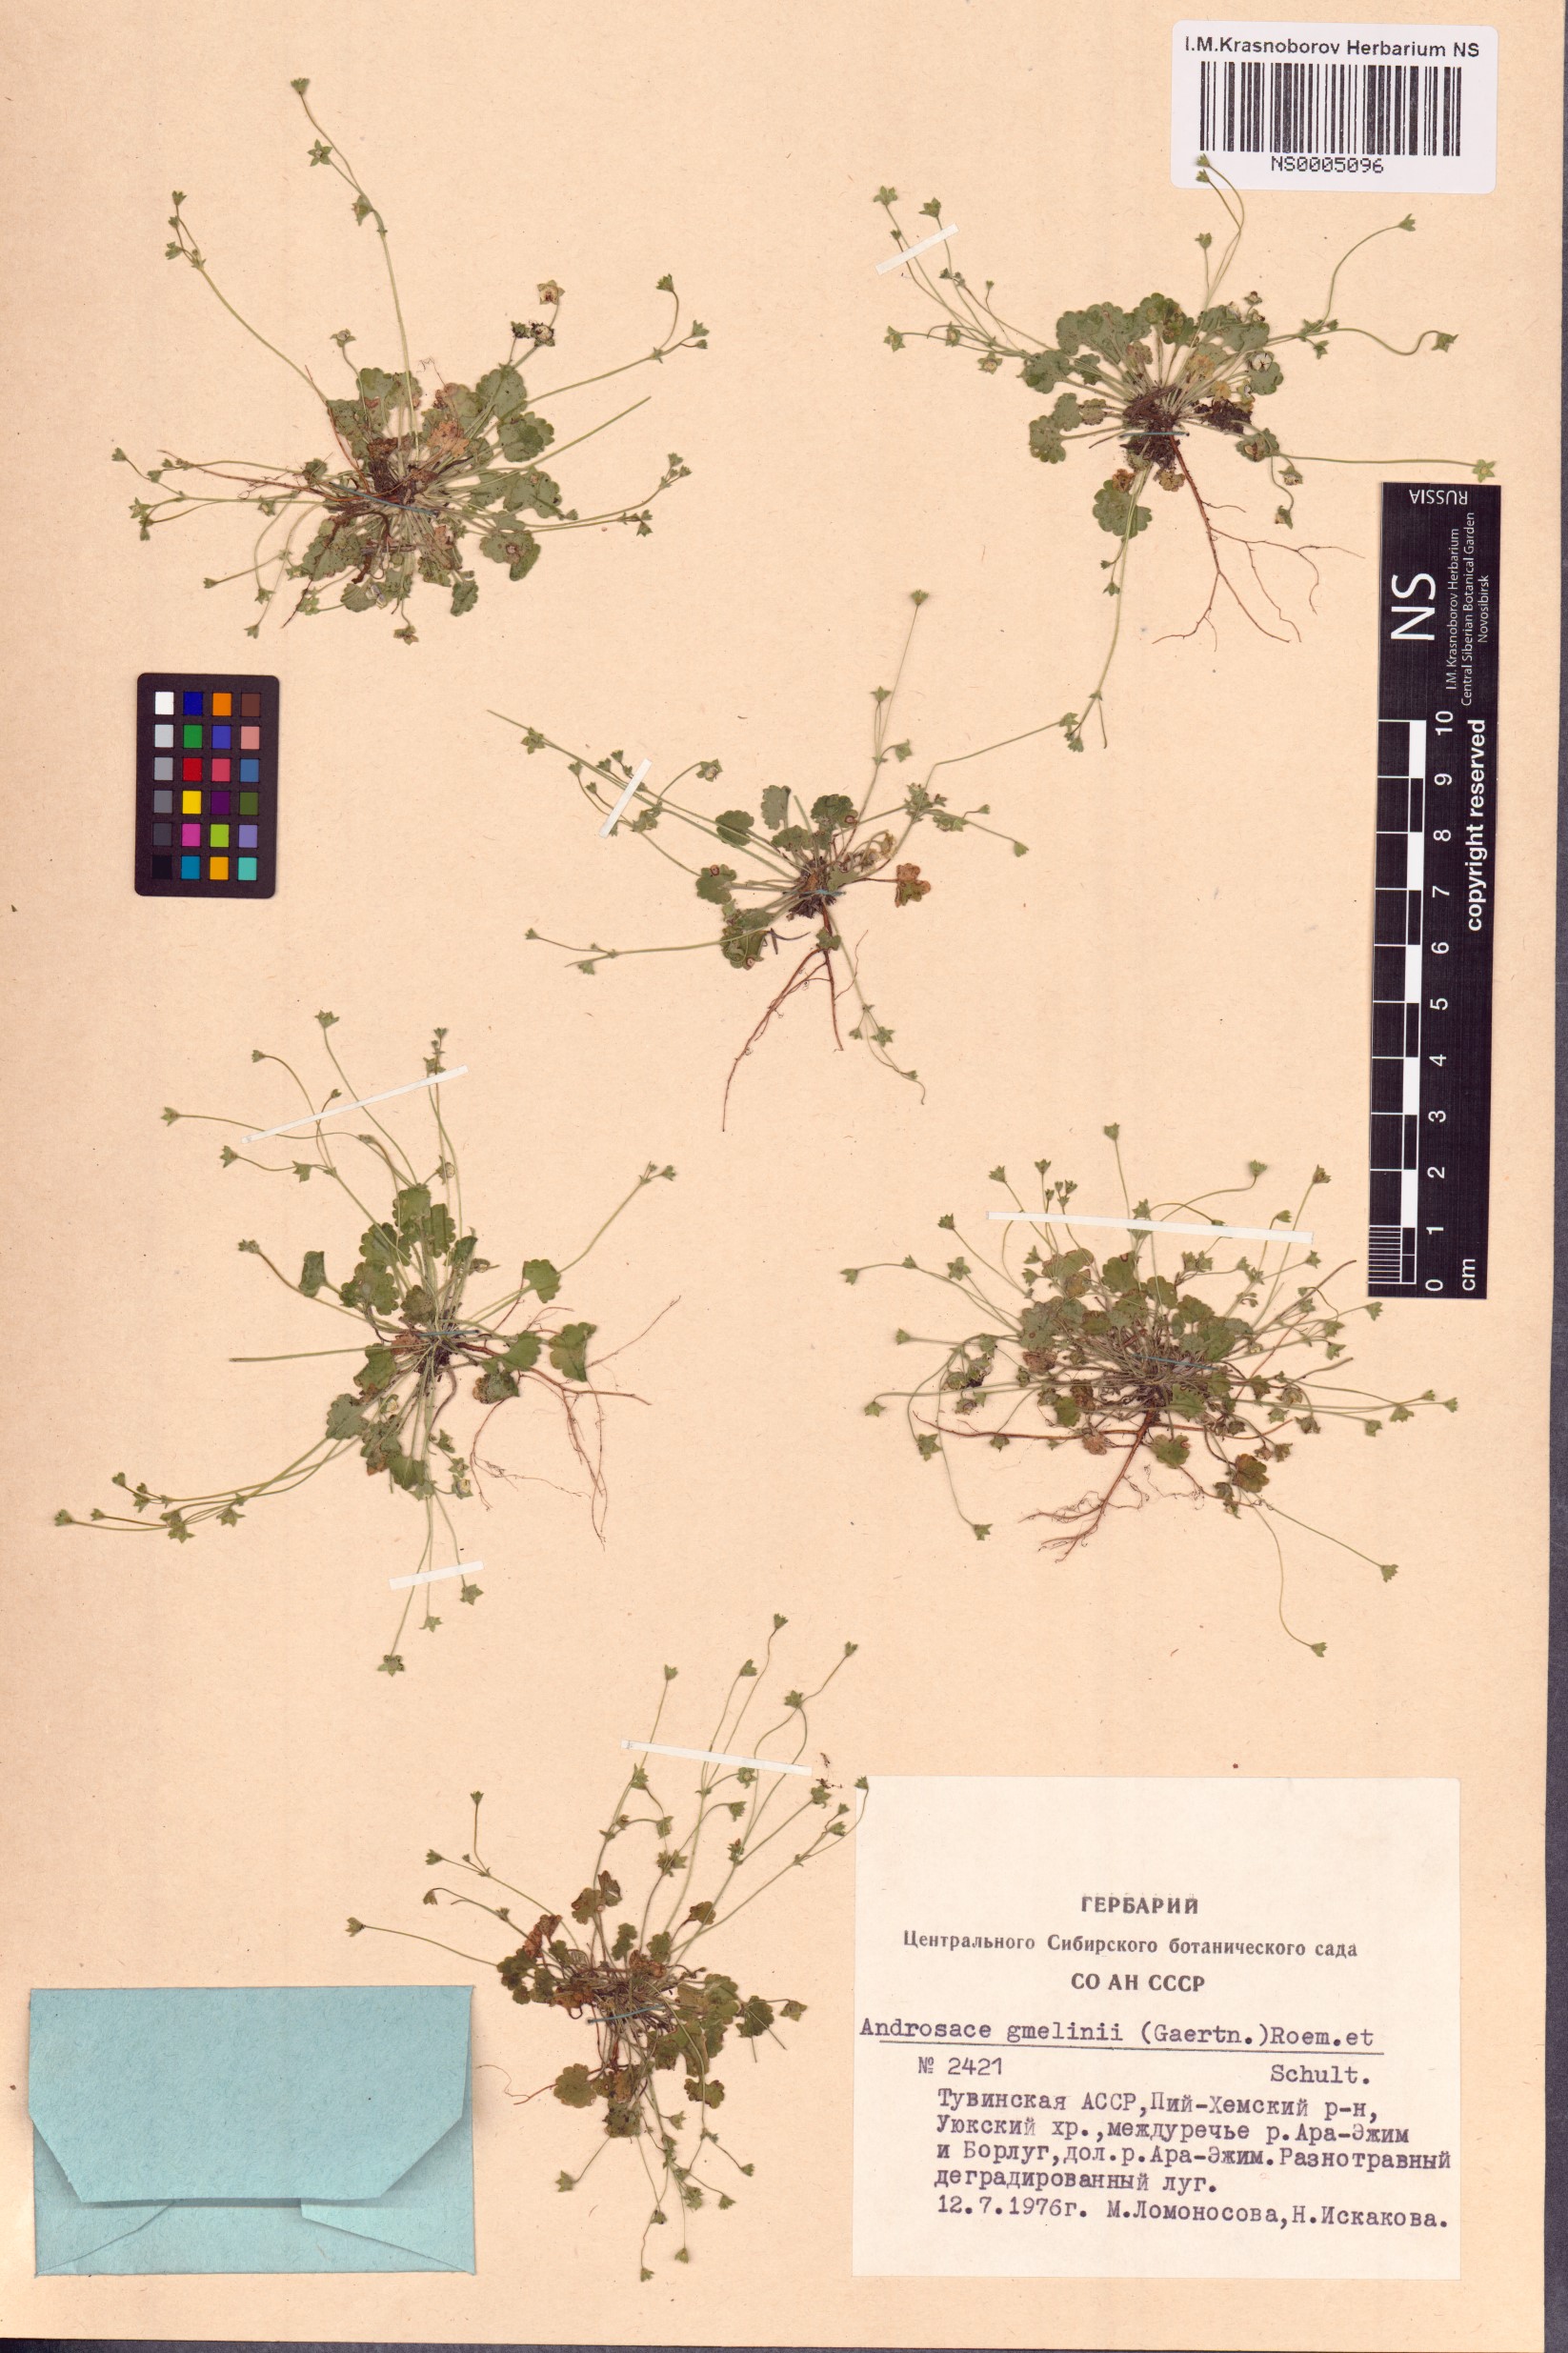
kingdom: Plantae
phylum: Tracheophyta
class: Magnoliopsida
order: Ericales
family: Primulaceae
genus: Androsace
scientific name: Androsace gmelinii
